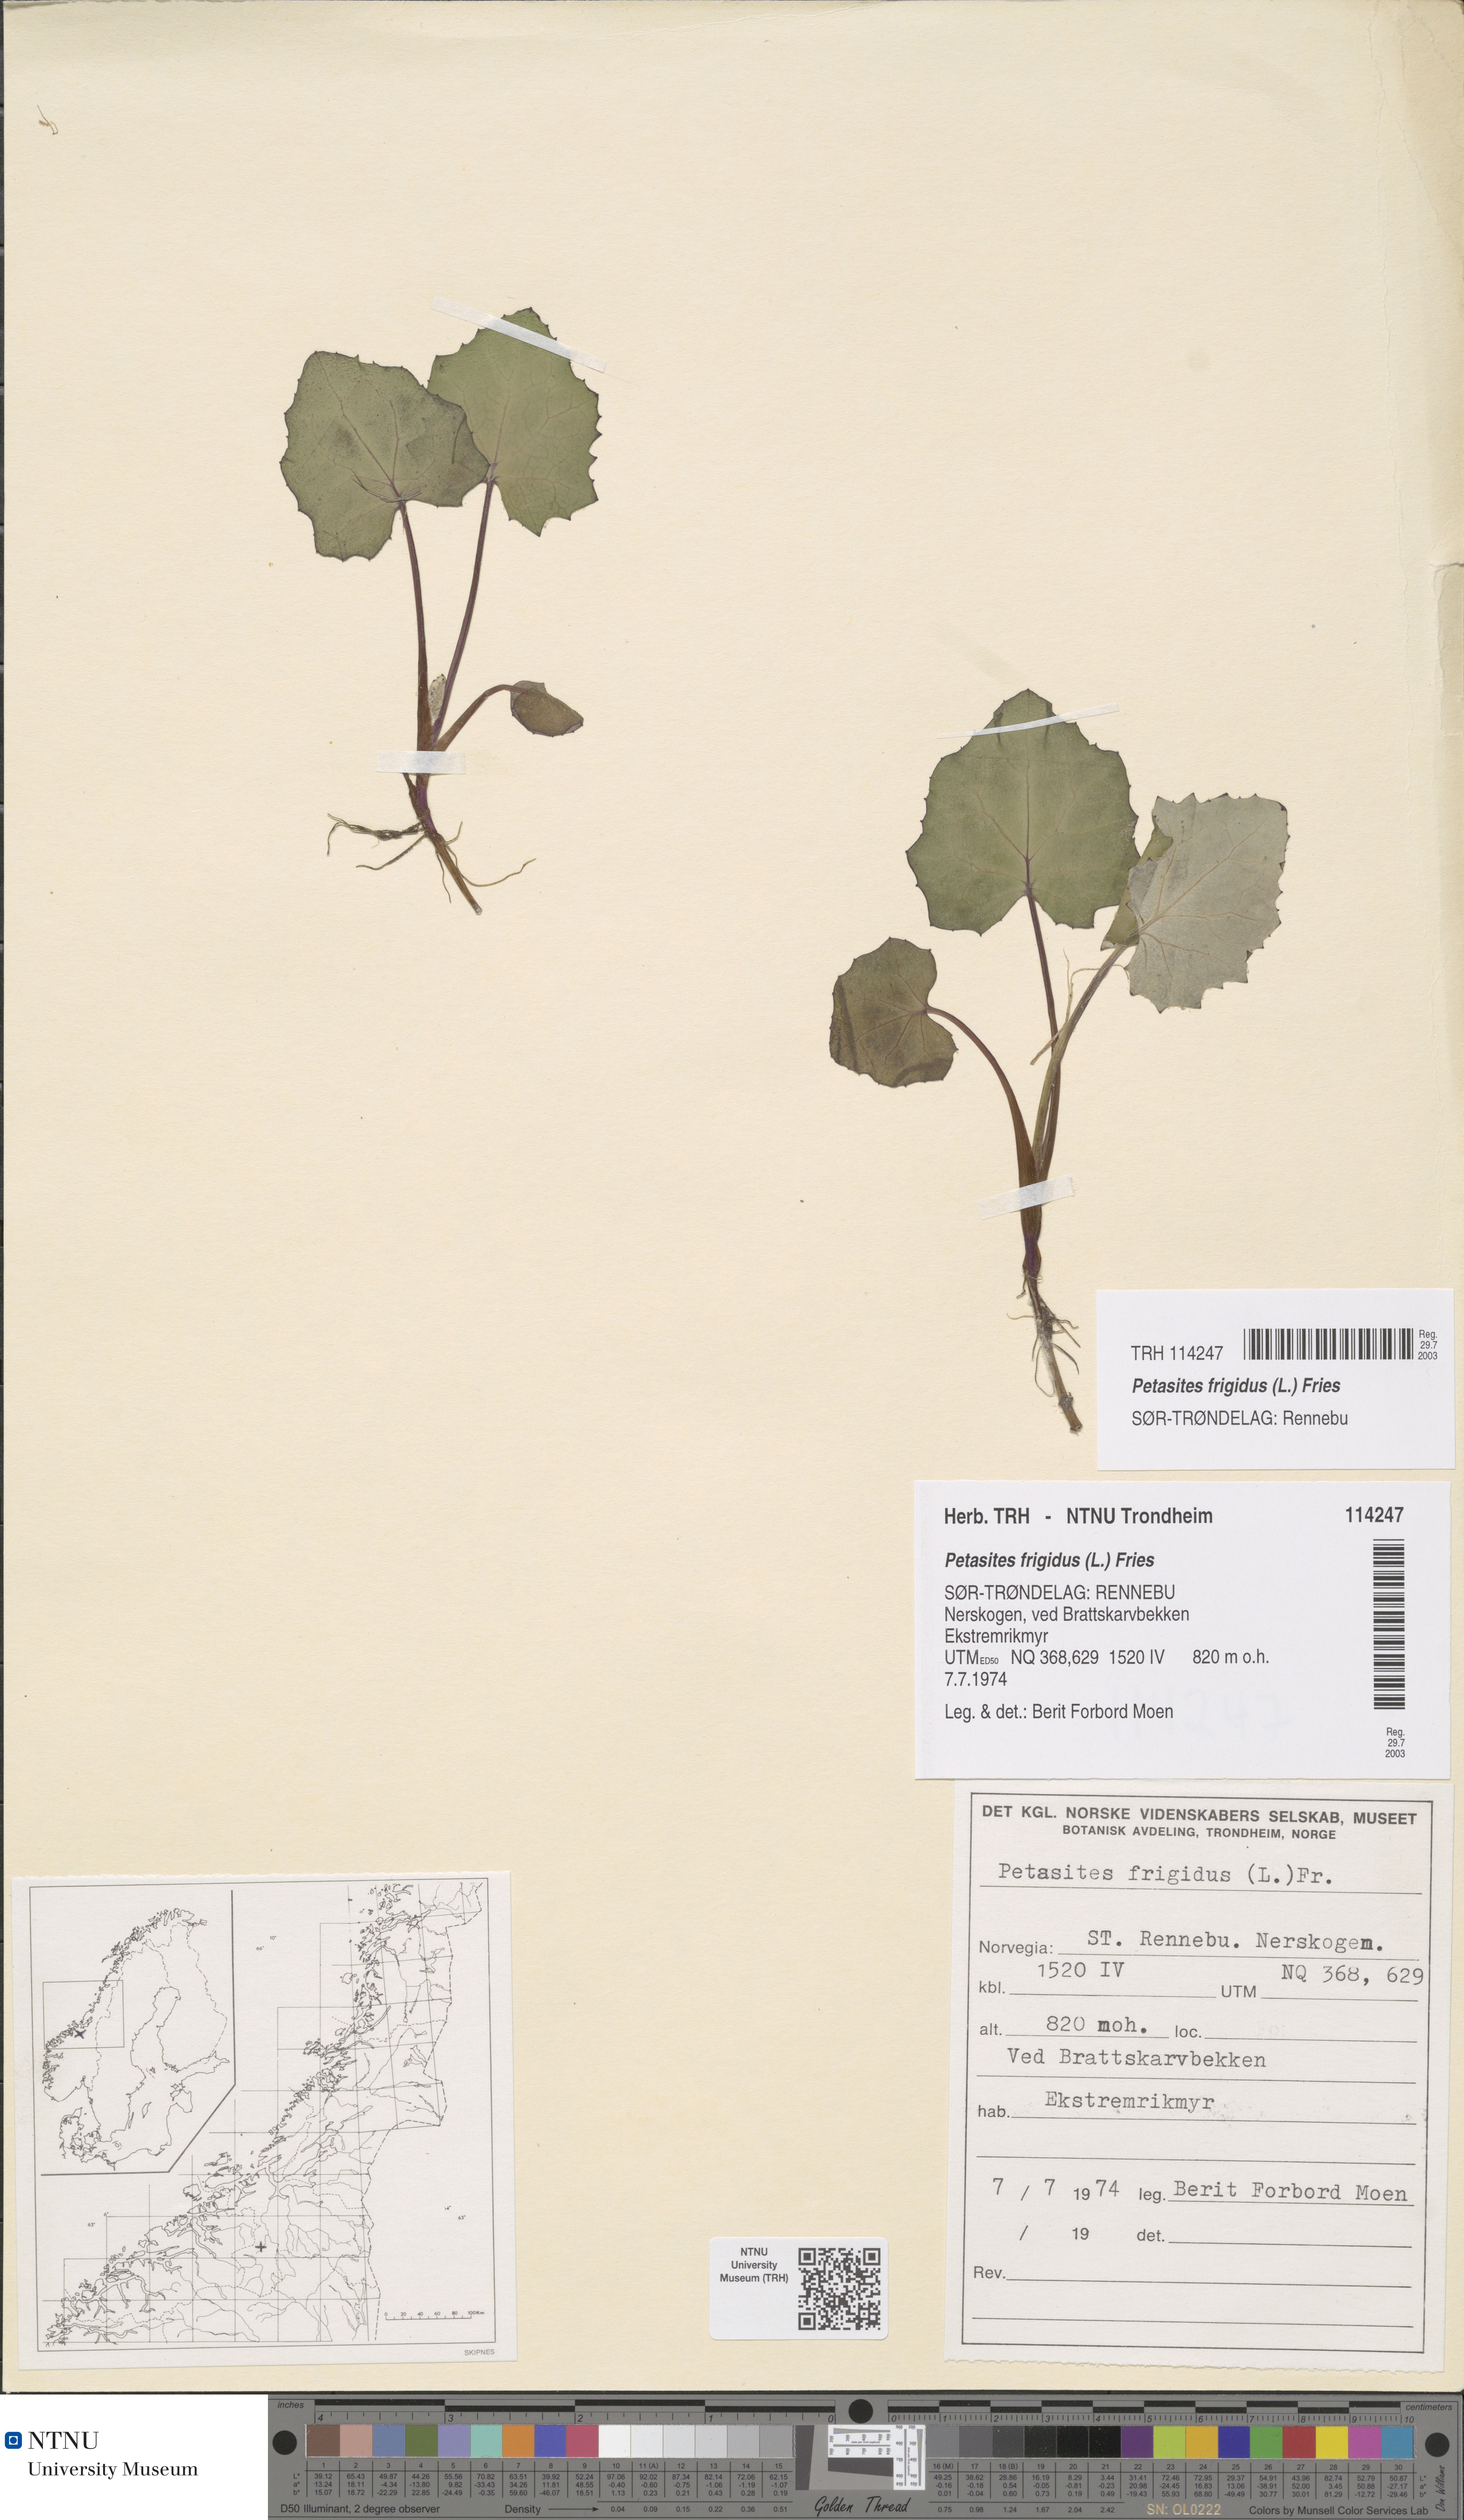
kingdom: Plantae
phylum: Tracheophyta
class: Magnoliopsida
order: Asterales
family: Asteraceae
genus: Petasites
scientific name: Petasites frigidus
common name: Arctic butterbur
